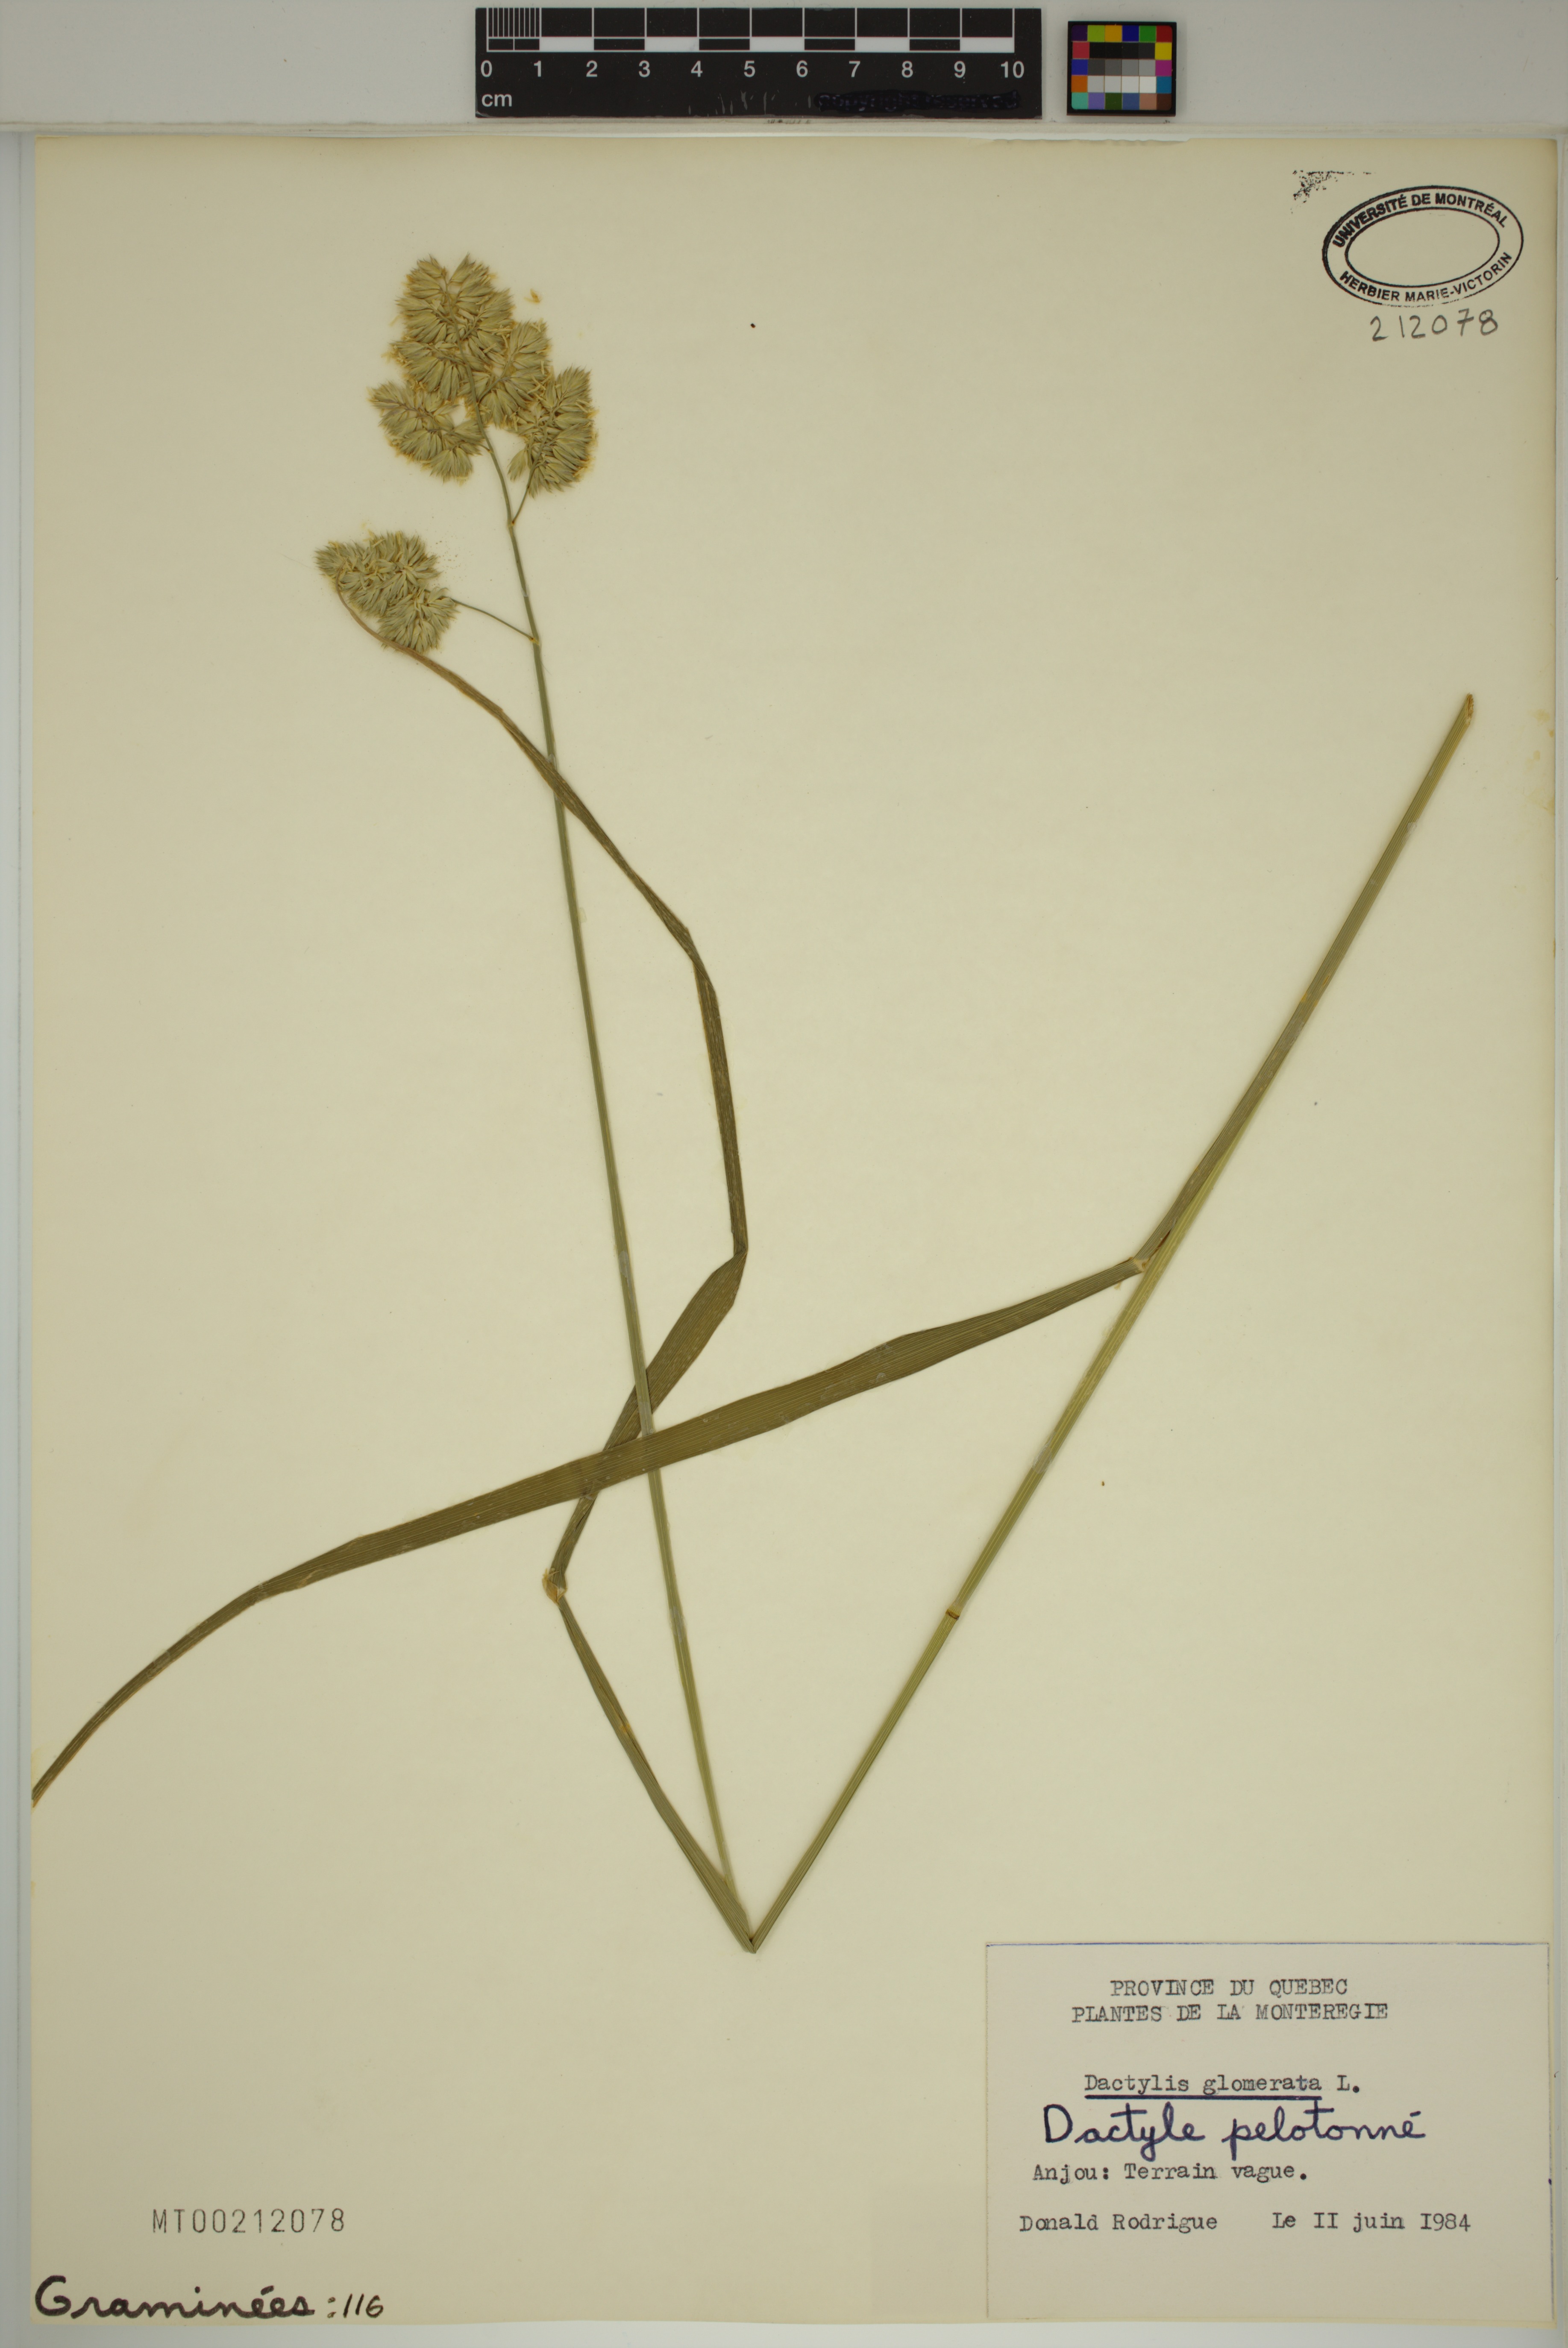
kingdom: Plantae
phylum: Tracheophyta
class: Liliopsida
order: Poales
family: Poaceae
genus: Dactylis
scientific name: Dactylis glomerata
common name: Orchardgrass
